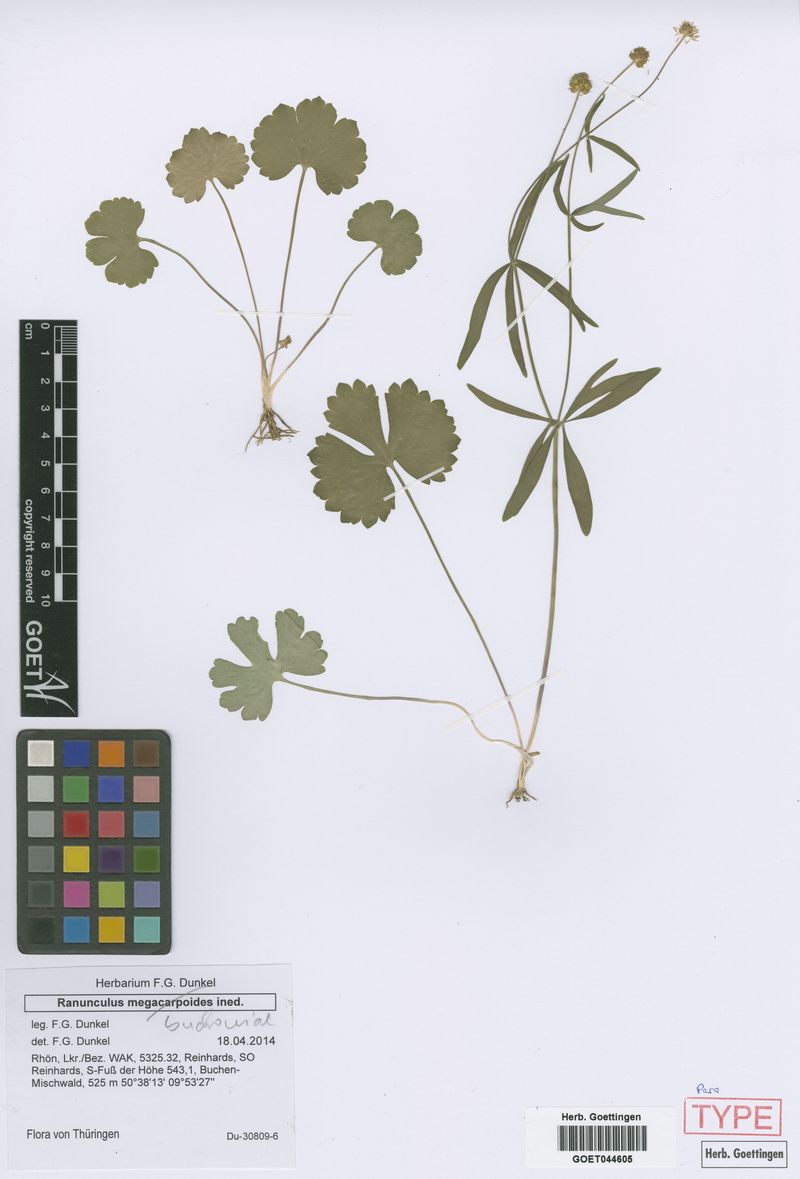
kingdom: Plantae
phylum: Tracheophyta
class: Magnoliopsida
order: Ranunculales
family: Ranunculaceae
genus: Ranunculus
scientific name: Ranunculus buchoniae
